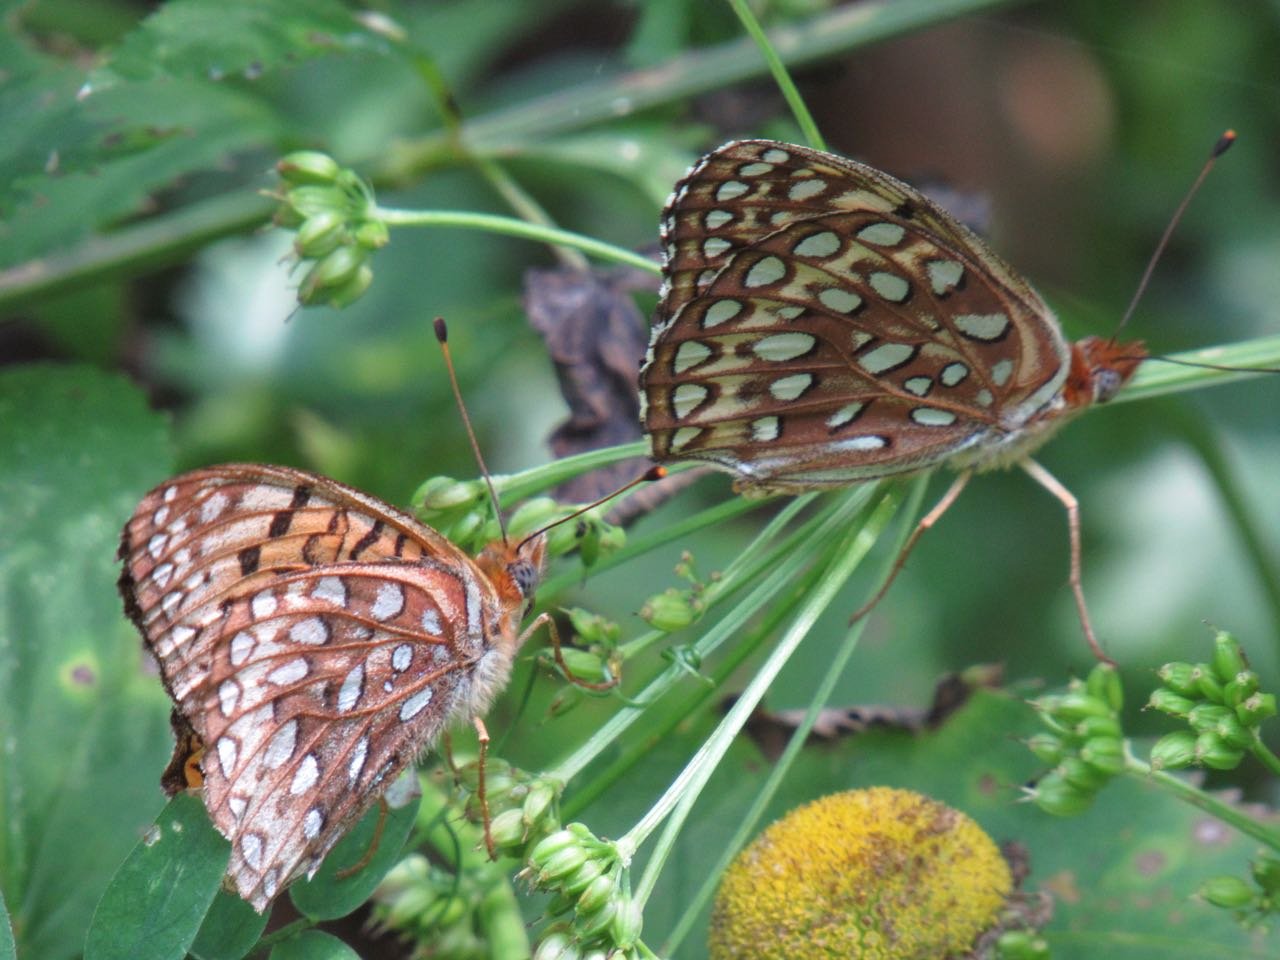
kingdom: Animalia
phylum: Arthropoda
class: Insecta
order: Lepidoptera
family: Nymphalidae
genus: Speyeria
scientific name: Speyeria atlantis
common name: Atlantis Fritillary
